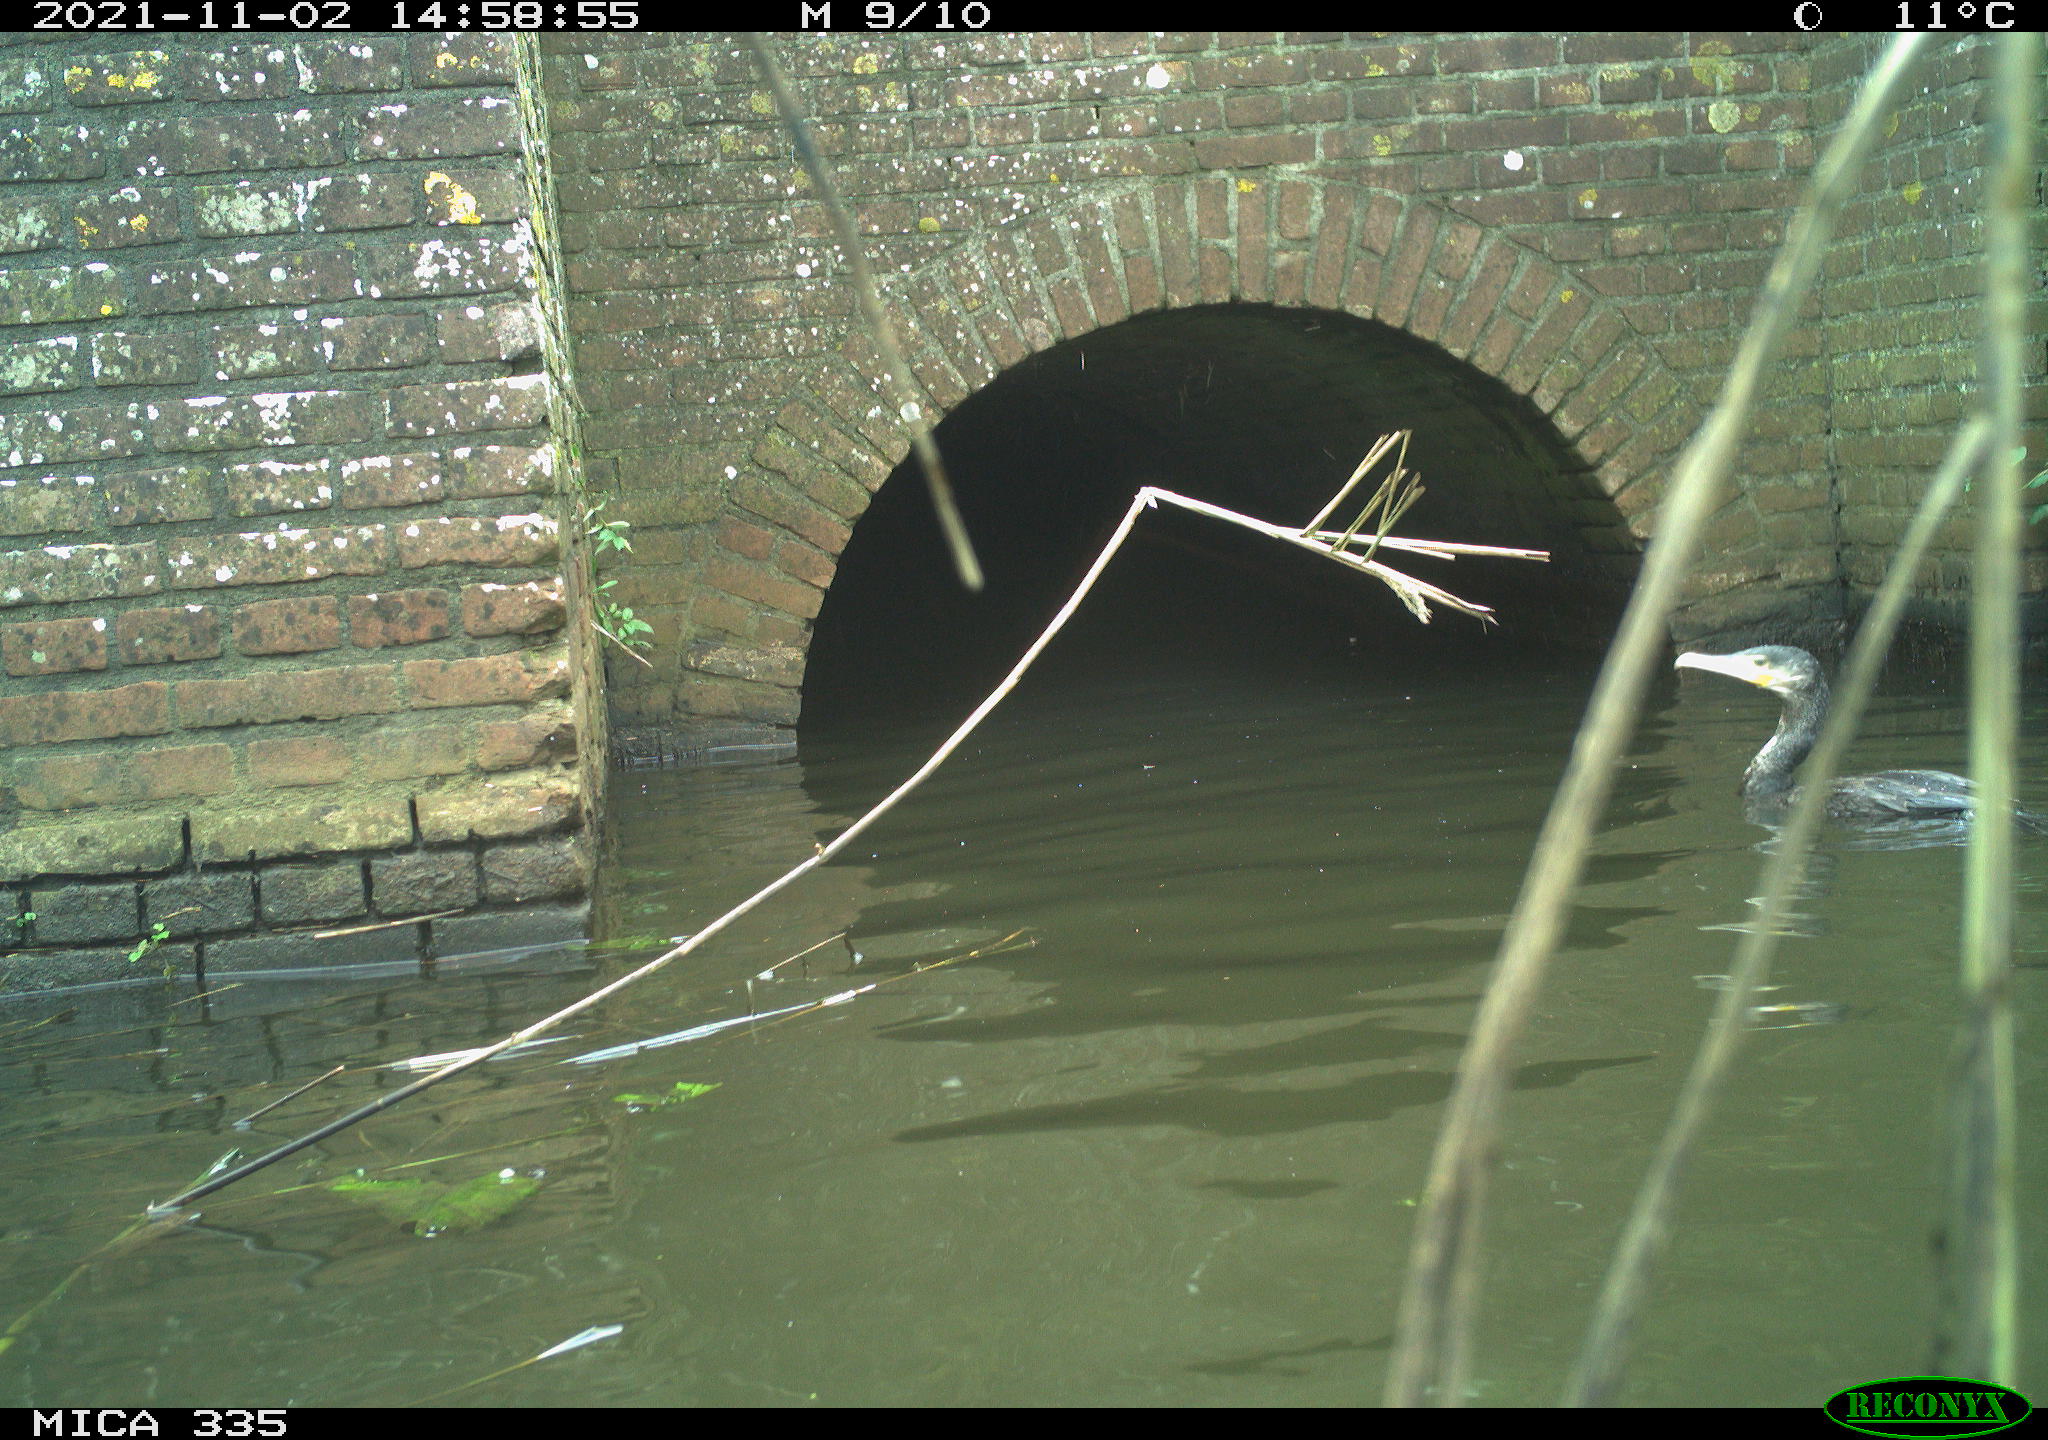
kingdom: Animalia
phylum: Chordata
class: Aves
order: Suliformes
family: Phalacrocoracidae
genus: Phalacrocorax
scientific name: Phalacrocorax carbo
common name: Great cormorant
